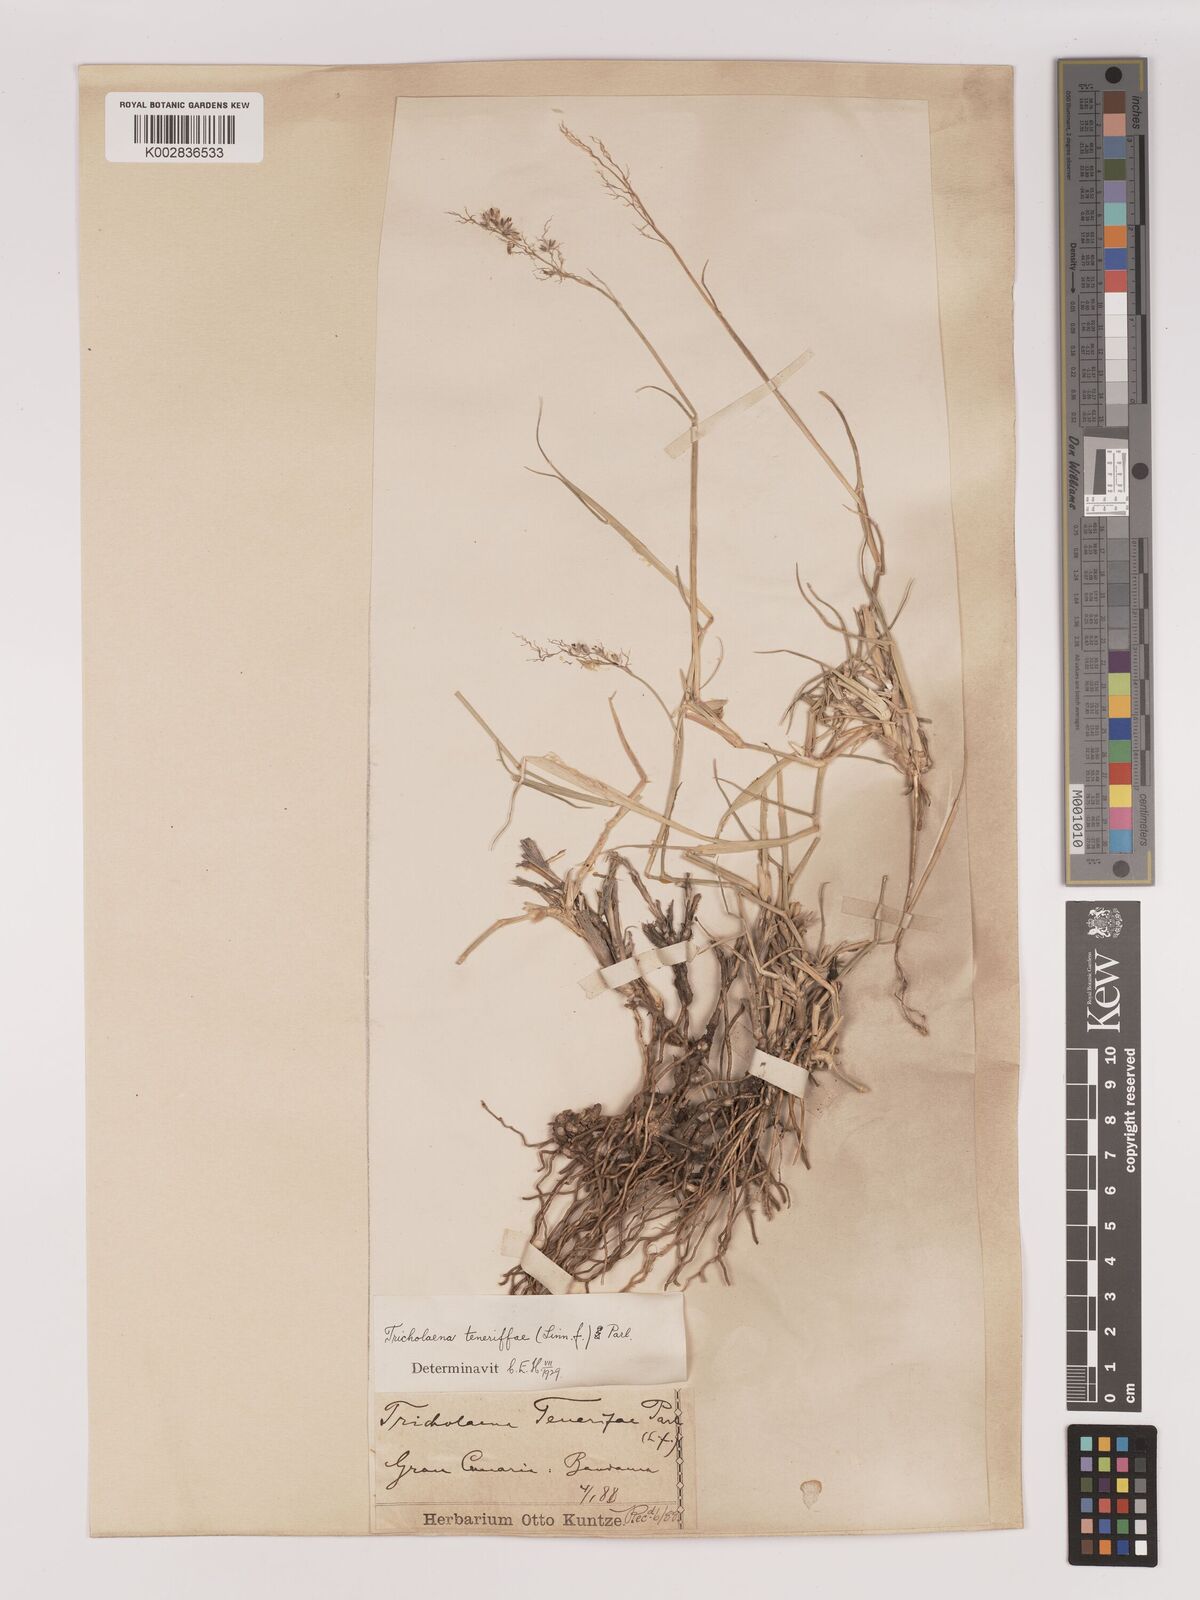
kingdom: Plantae
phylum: Tracheophyta
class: Liliopsida
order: Poales
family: Poaceae
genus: Tricholaena
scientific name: Tricholaena teneriffae
